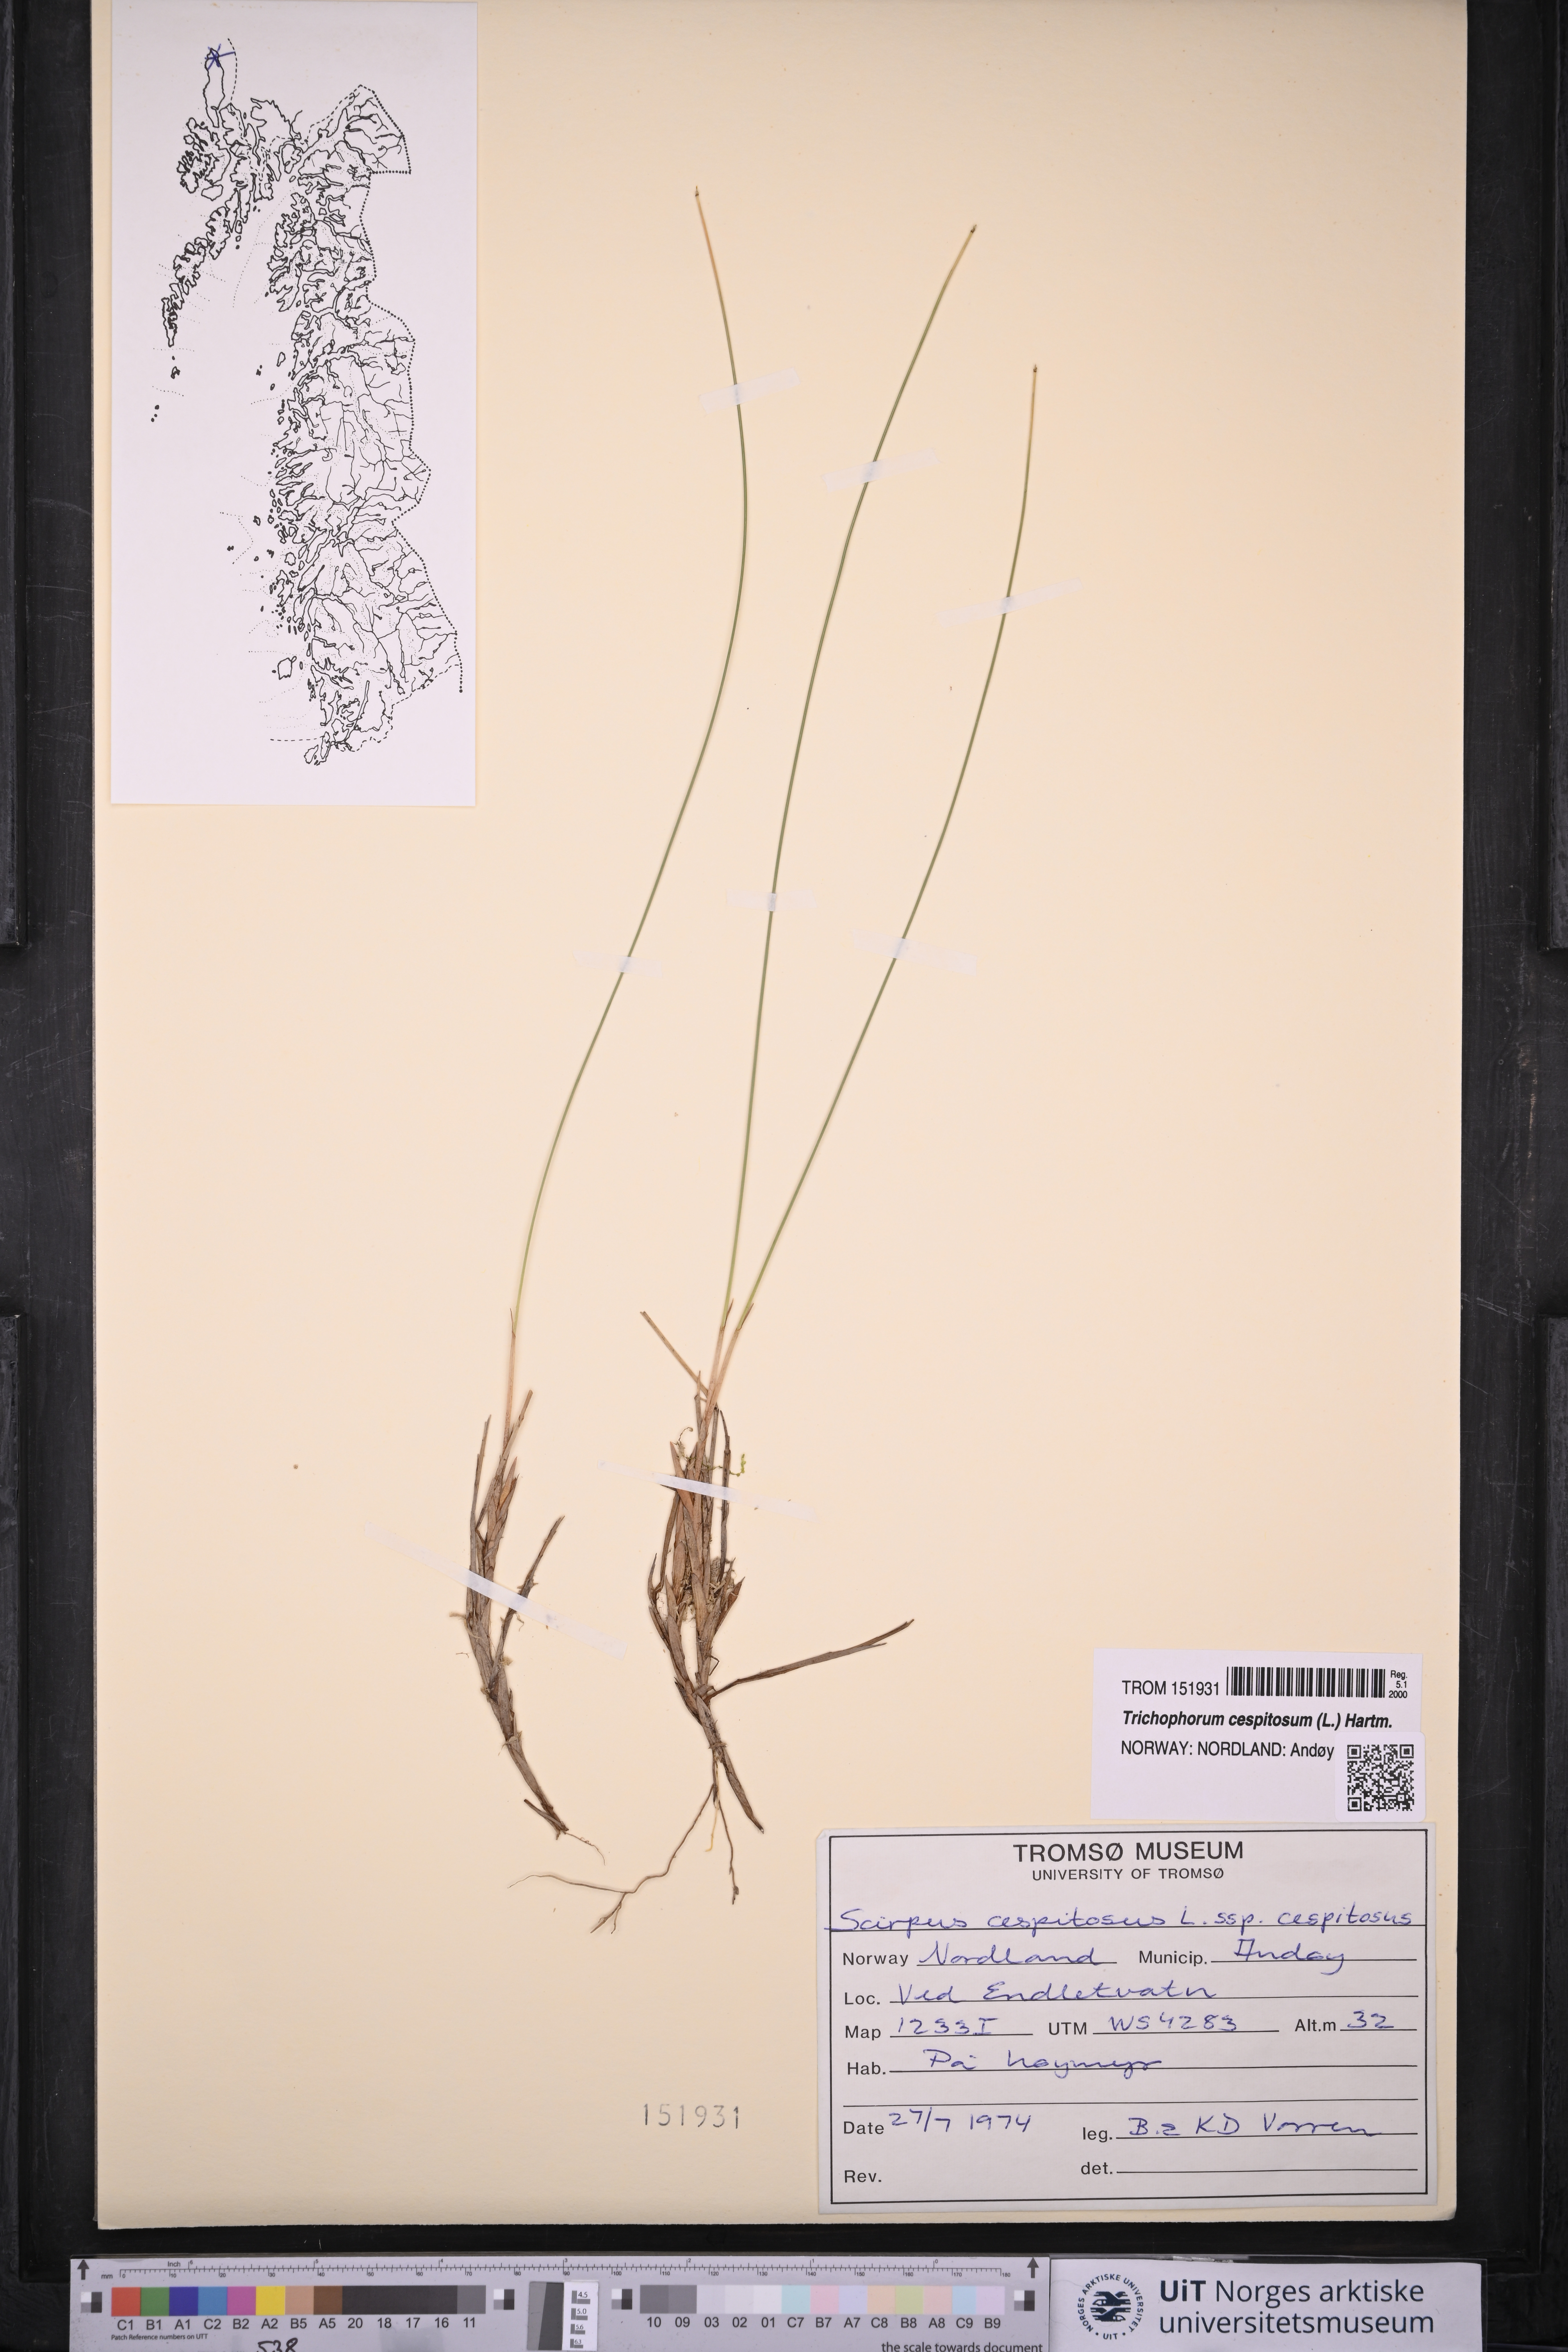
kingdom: Plantae
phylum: Tracheophyta
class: Liliopsida
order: Poales
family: Cyperaceae
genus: Trichophorum
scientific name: Trichophorum cespitosum
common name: Cespitose bulrush
